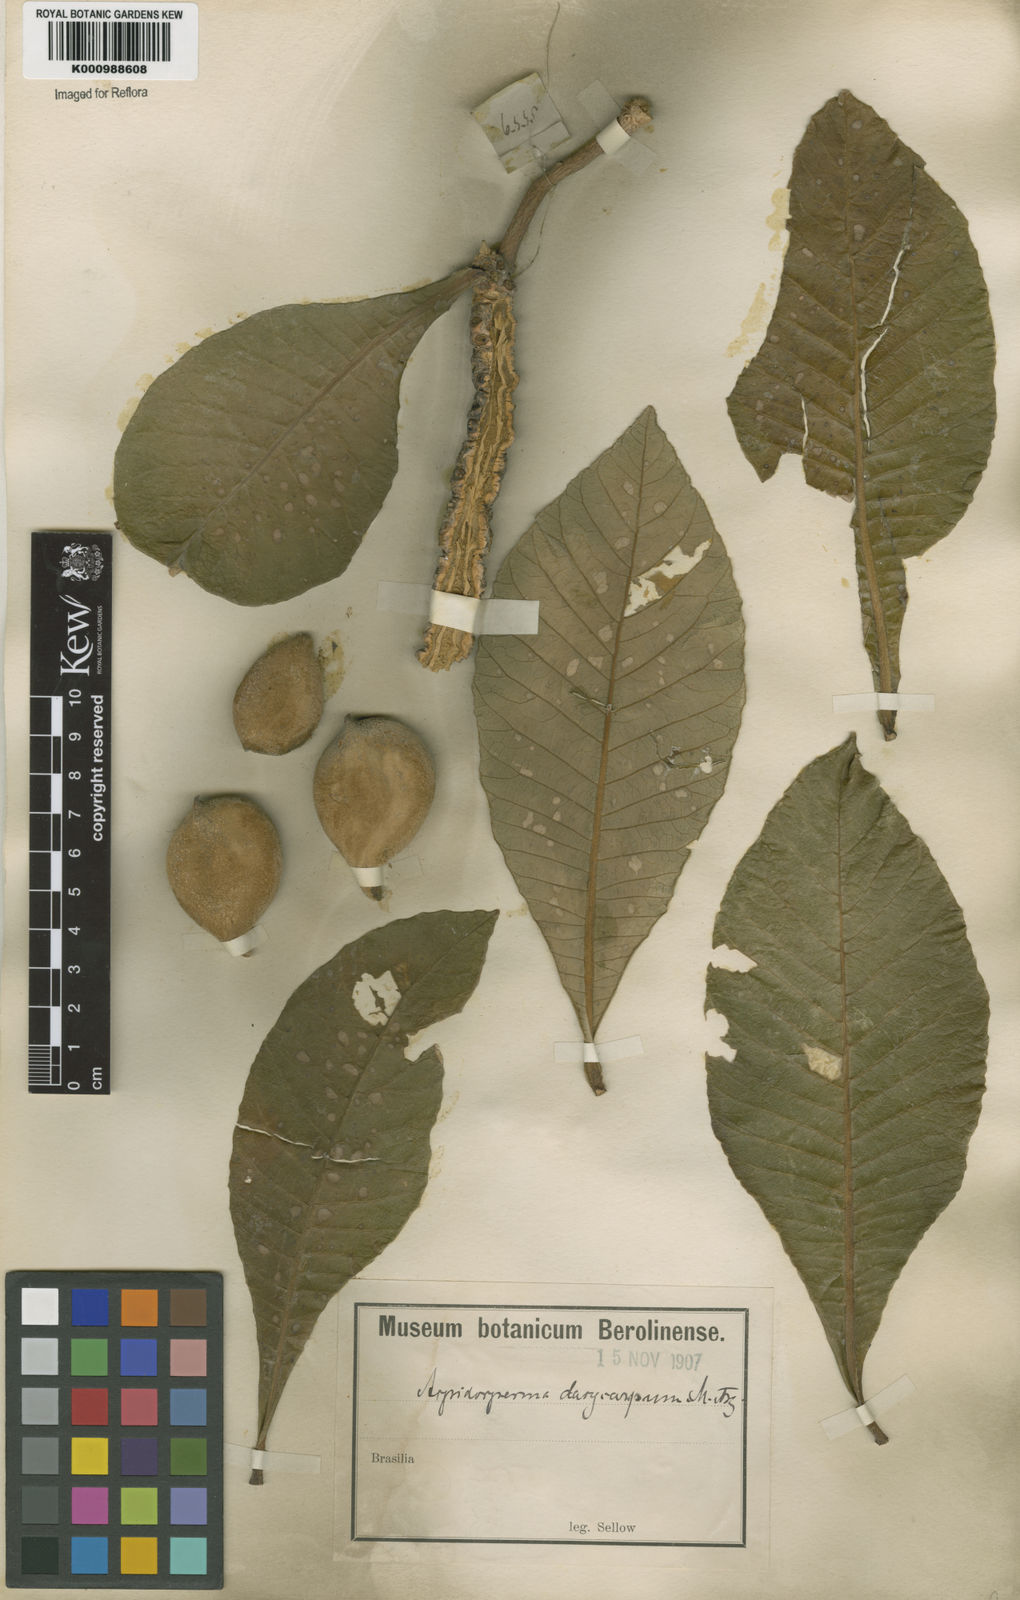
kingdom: Plantae
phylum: Tracheophyta
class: Magnoliopsida
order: Gentianales
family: Apocynaceae
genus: Aspidosperma
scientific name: Aspidosperma tomentosum
